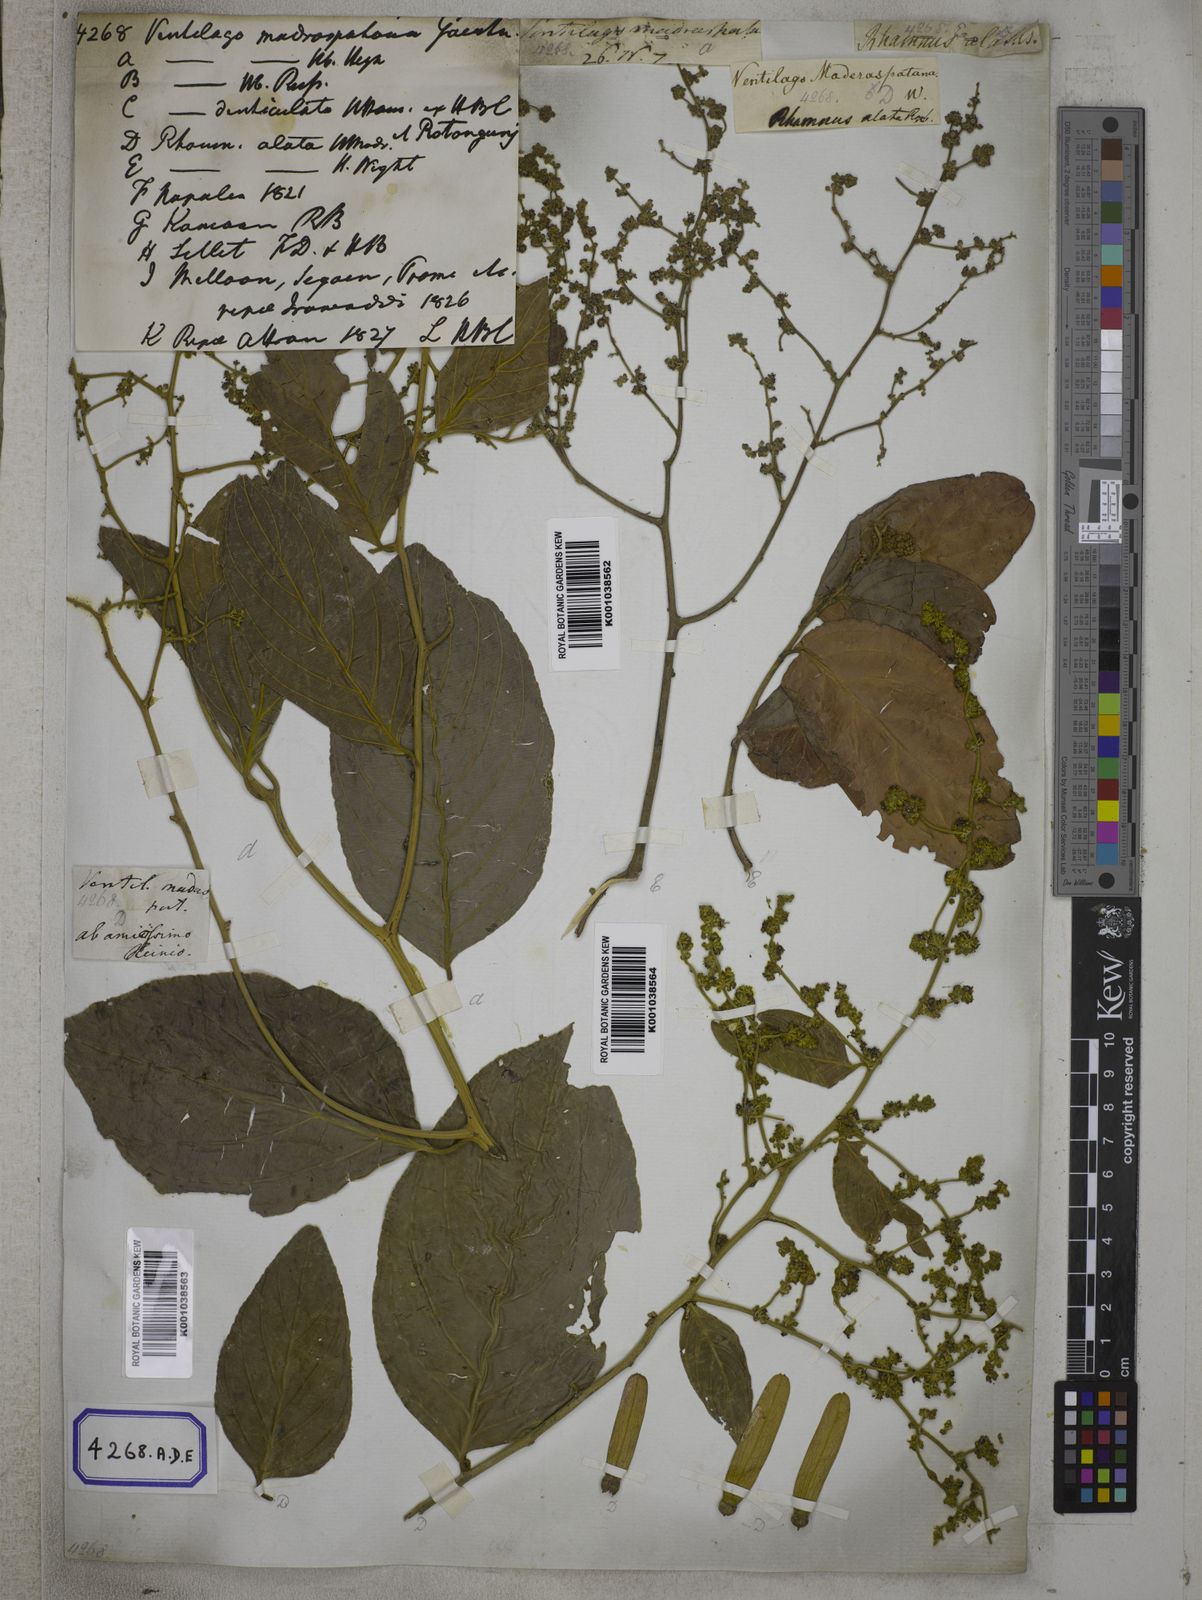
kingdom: Plantae
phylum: Tracheophyta
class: Magnoliopsida
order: Rosales
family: Rhamnaceae
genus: Ventilago
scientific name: Ventilago madraspatana
